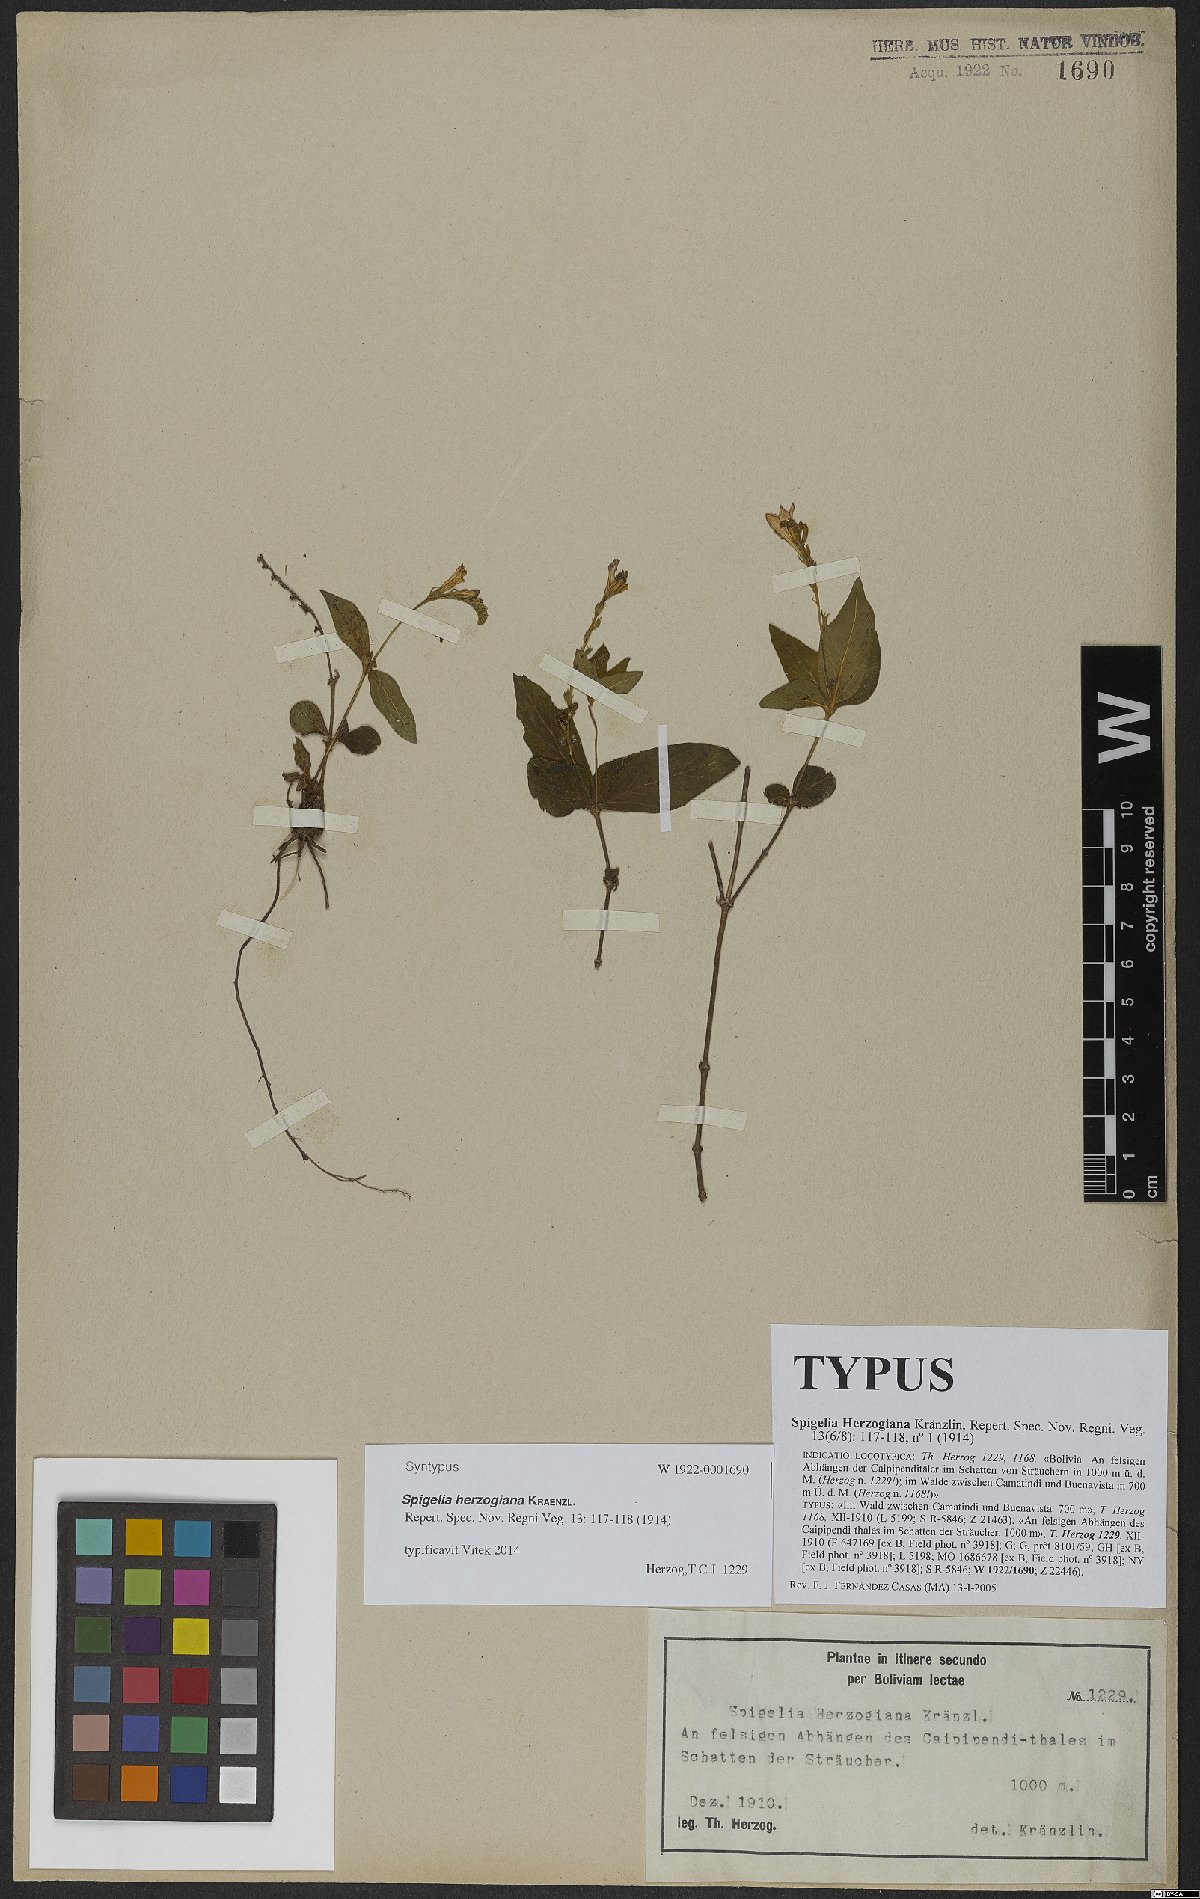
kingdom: Plantae
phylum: Tracheophyta
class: Magnoliopsida
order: Gentianales
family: Loganiaceae
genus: Spigelia
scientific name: Spigelia herzogiana
